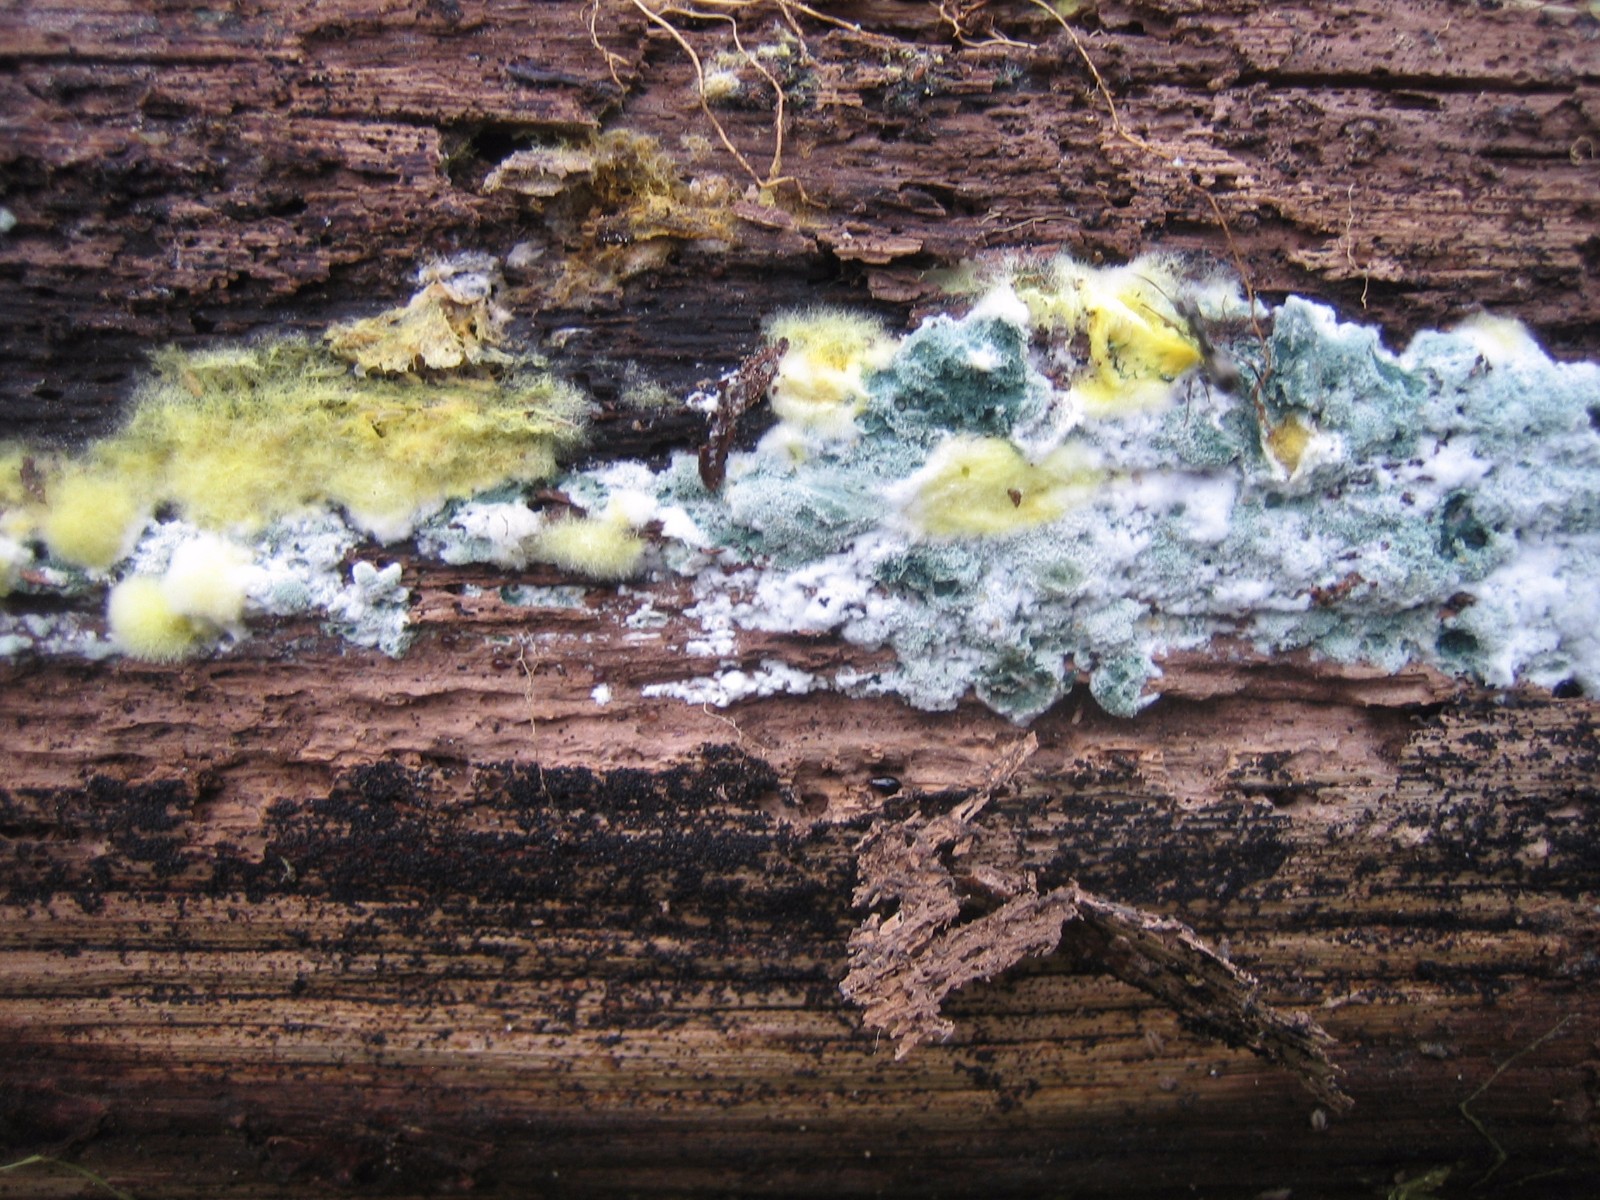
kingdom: Fungi
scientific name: Fungi
